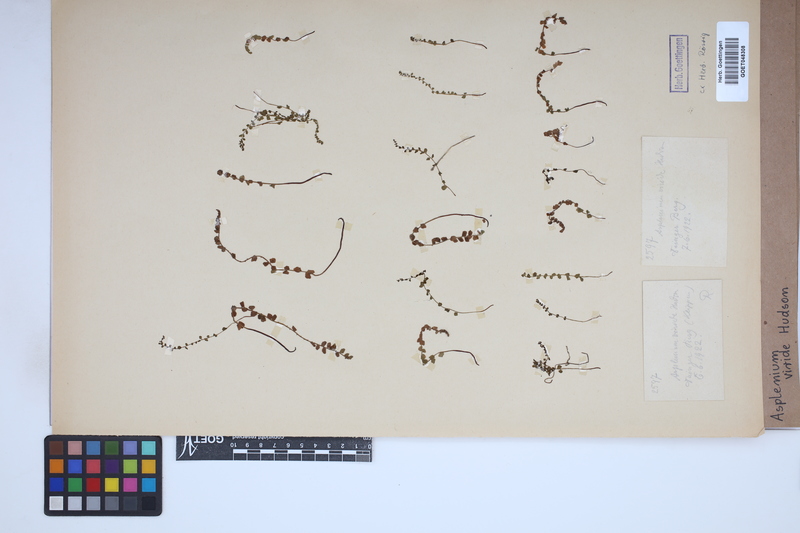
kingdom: Plantae
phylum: Tracheophyta
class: Polypodiopsida
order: Polypodiales
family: Aspleniaceae
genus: Asplenium
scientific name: Asplenium viride
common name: Green spleenwort
